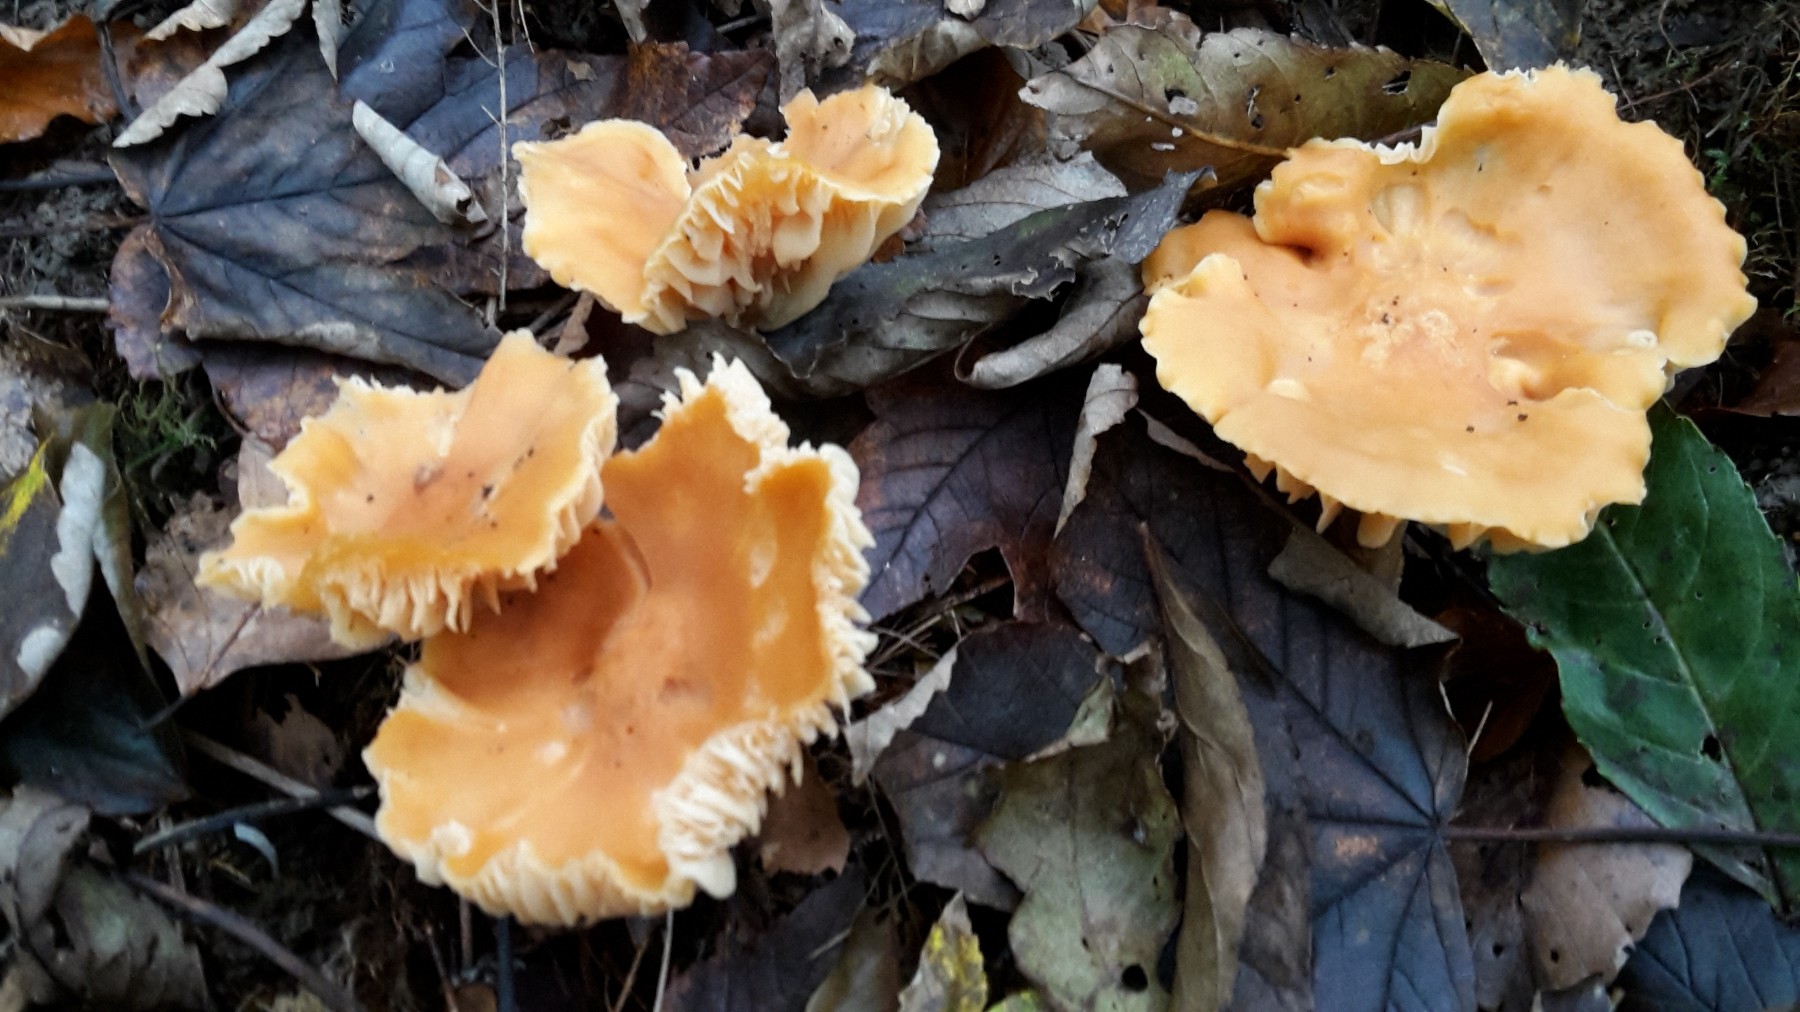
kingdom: Fungi
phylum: Basidiomycota
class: Agaricomycetes
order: Agaricales
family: Hygrophoraceae
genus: Cuphophyllus
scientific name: Cuphophyllus pratensis
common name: eng-vokshat
